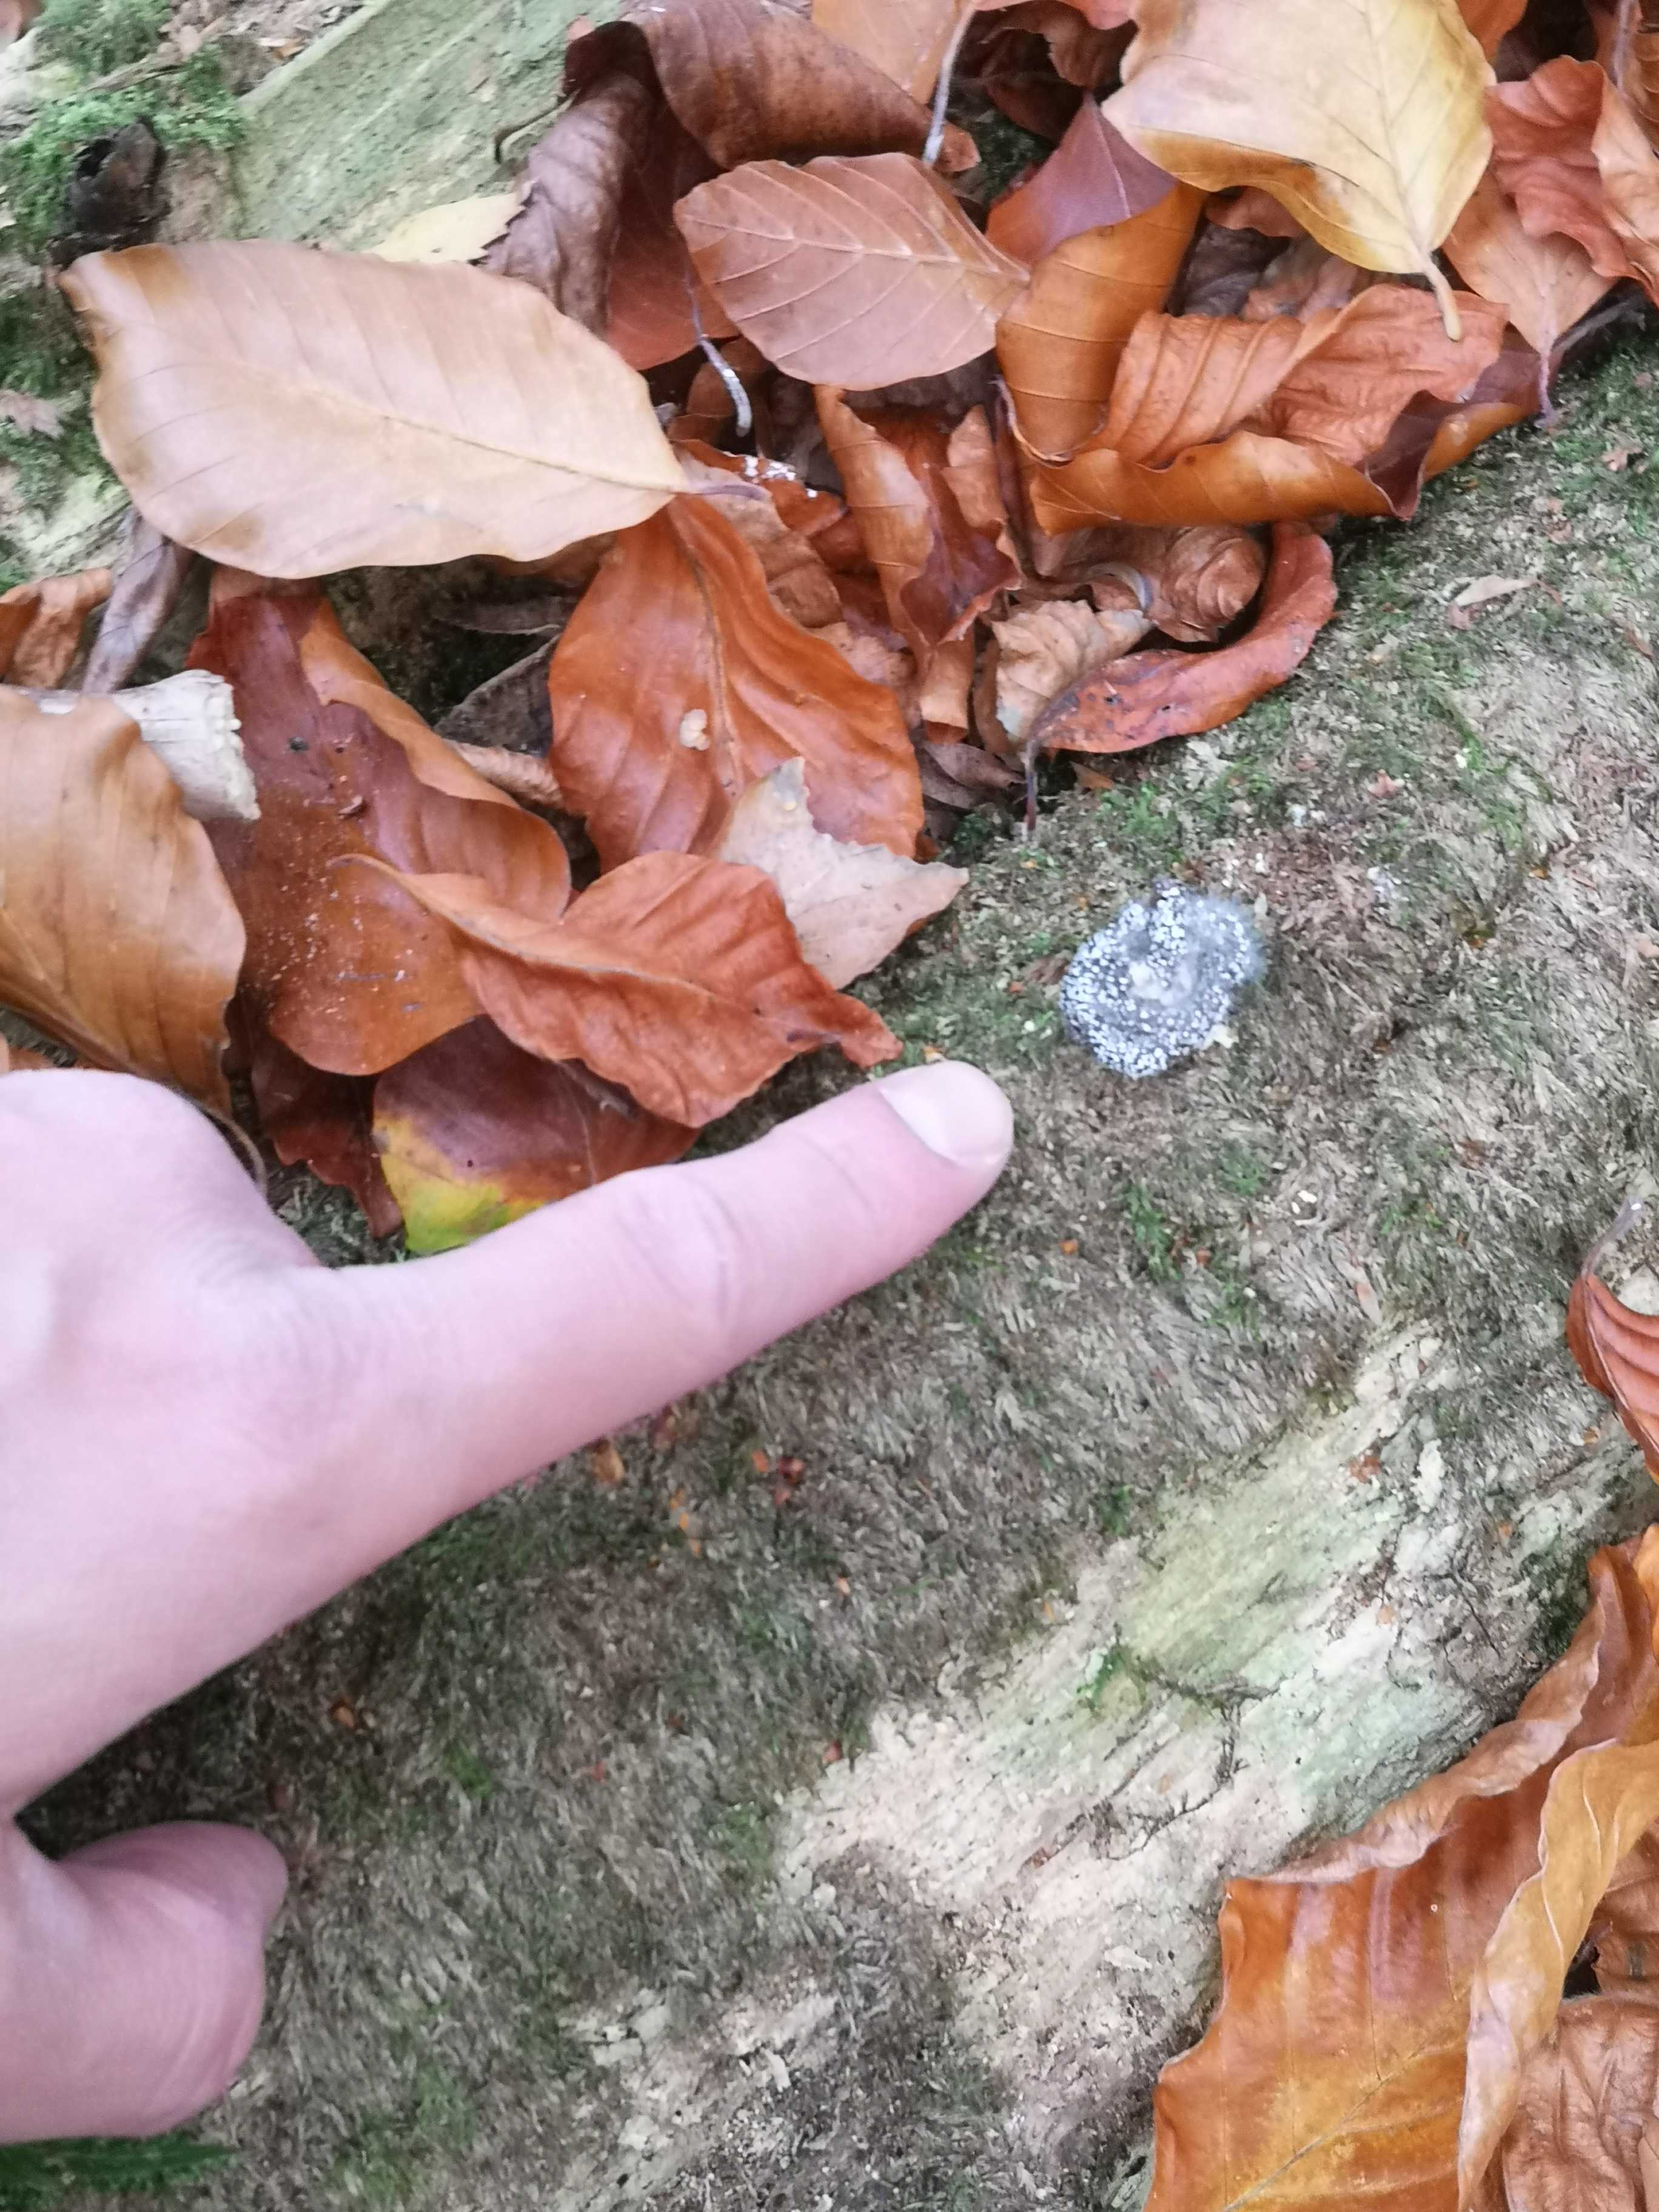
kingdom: Fungi
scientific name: Fungi
